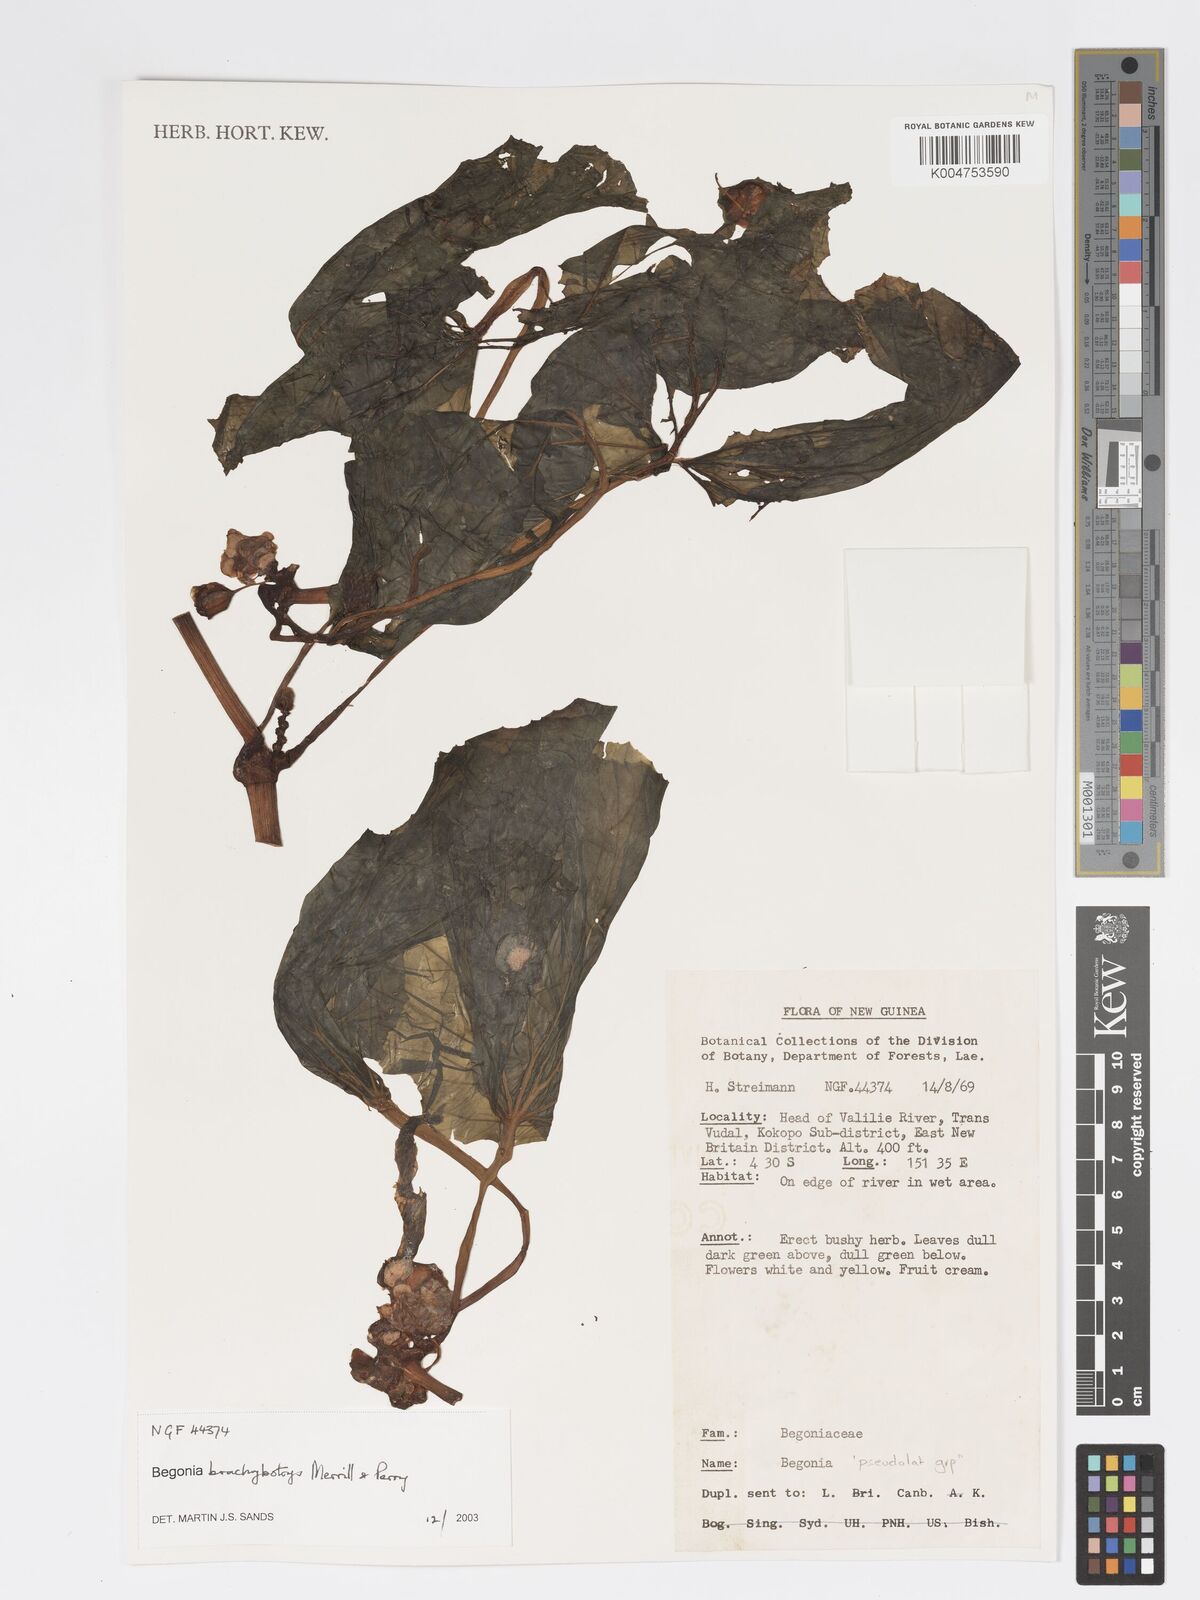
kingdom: Plantae
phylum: Tracheophyta
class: Magnoliopsida
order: Cucurbitales
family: Begoniaceae
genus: Begonia
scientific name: Begonia brachybotrys
